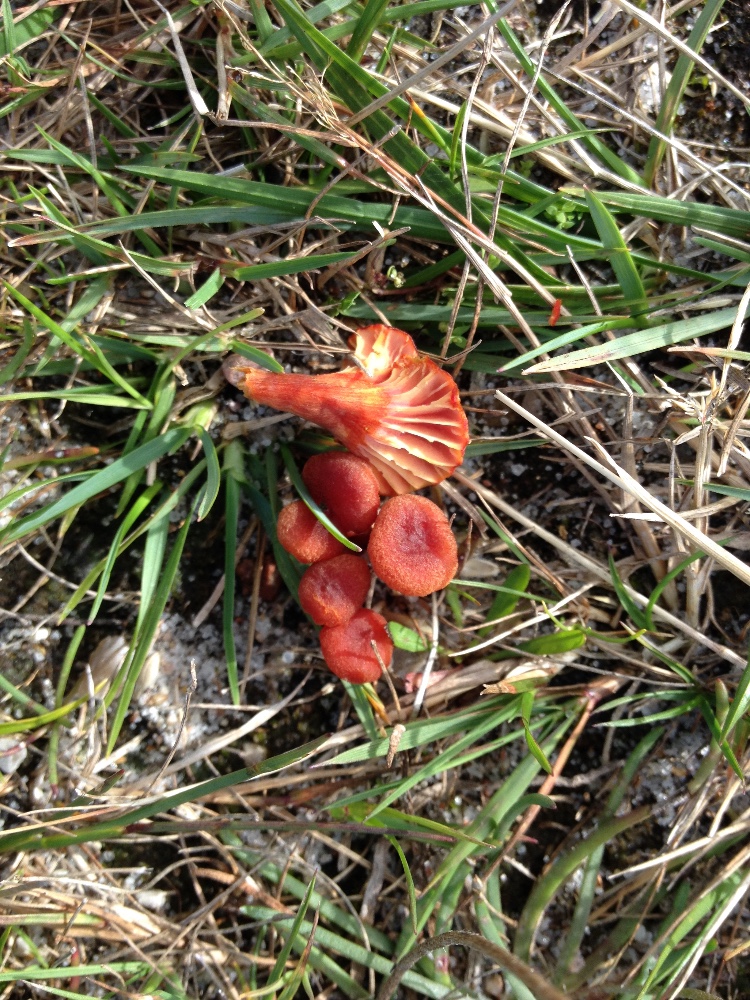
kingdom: Fungi
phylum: Basidiomycota
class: Agaricomycetes
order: Agaricales
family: Hygrophoraceae
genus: Hygrocybe
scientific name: Hygrocybe turunda
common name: sortskællet vokshat
